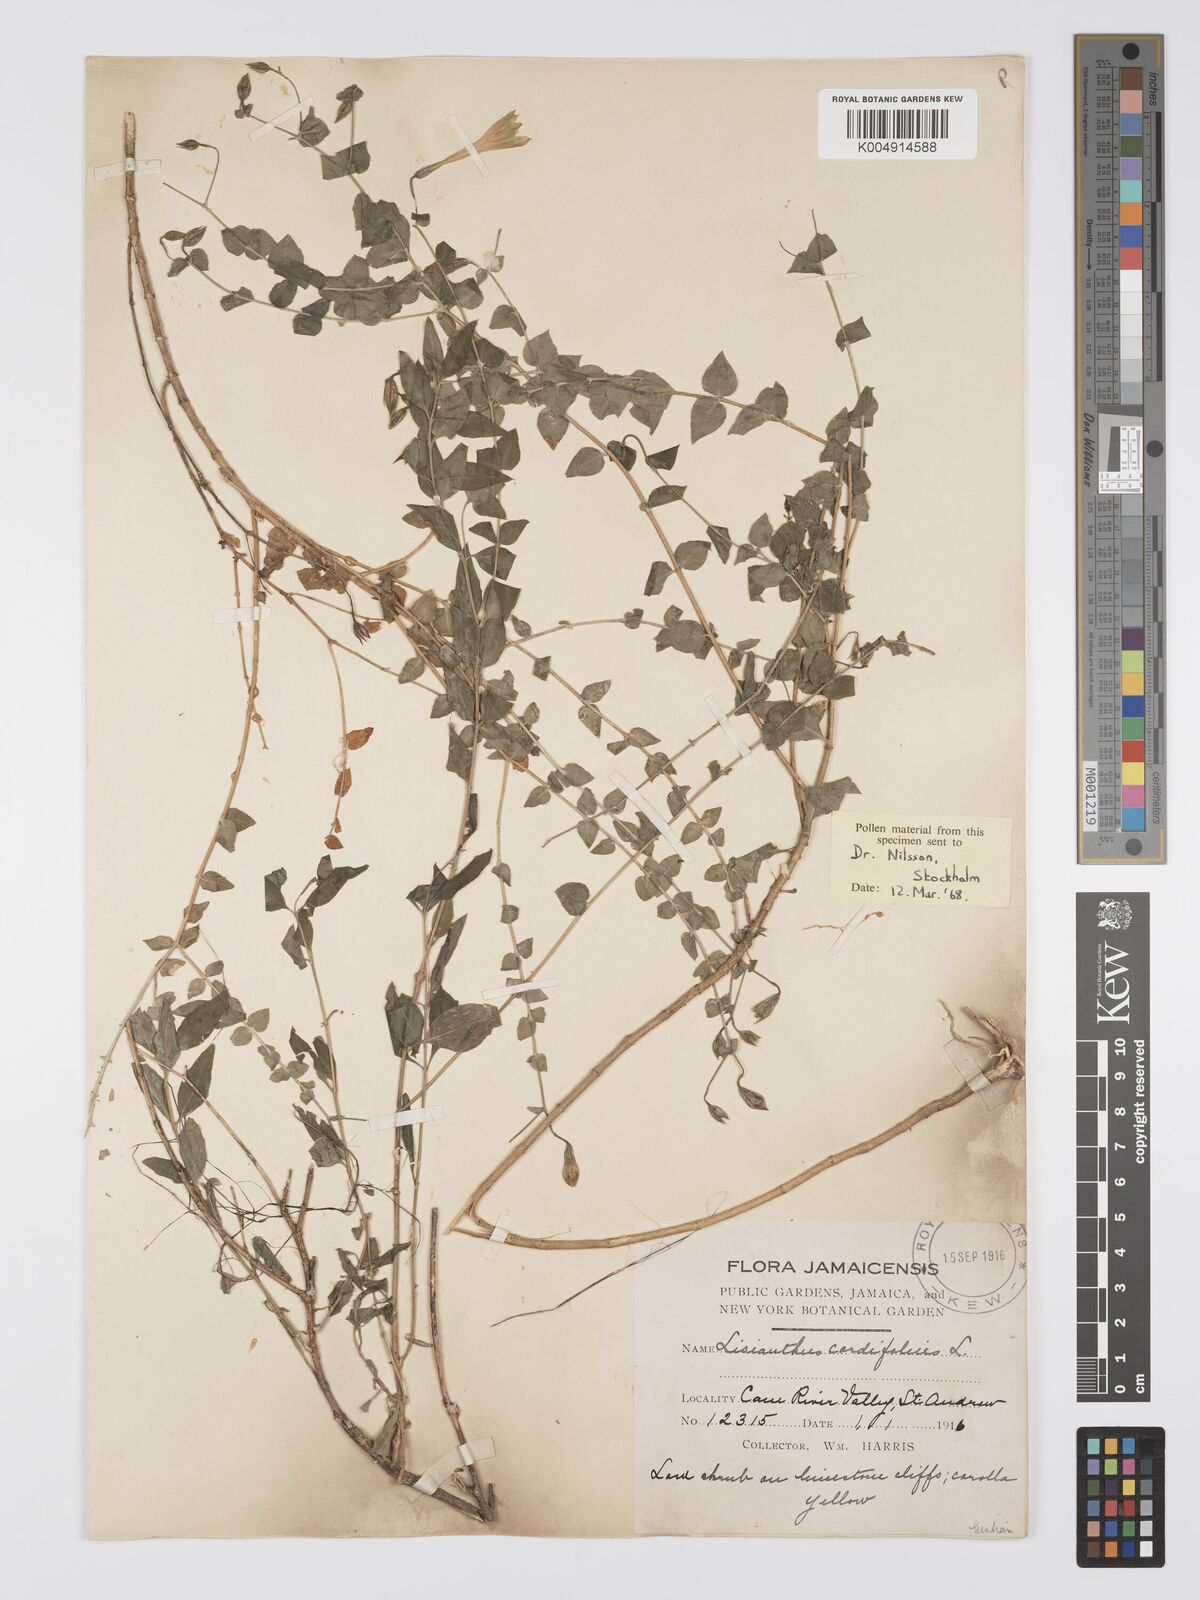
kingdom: Plantae
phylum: Tracheophyta
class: Magnoliopsida
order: Gentianales
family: Gentianaceae
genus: Lisianthus
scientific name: Lisianthus cordifolius
